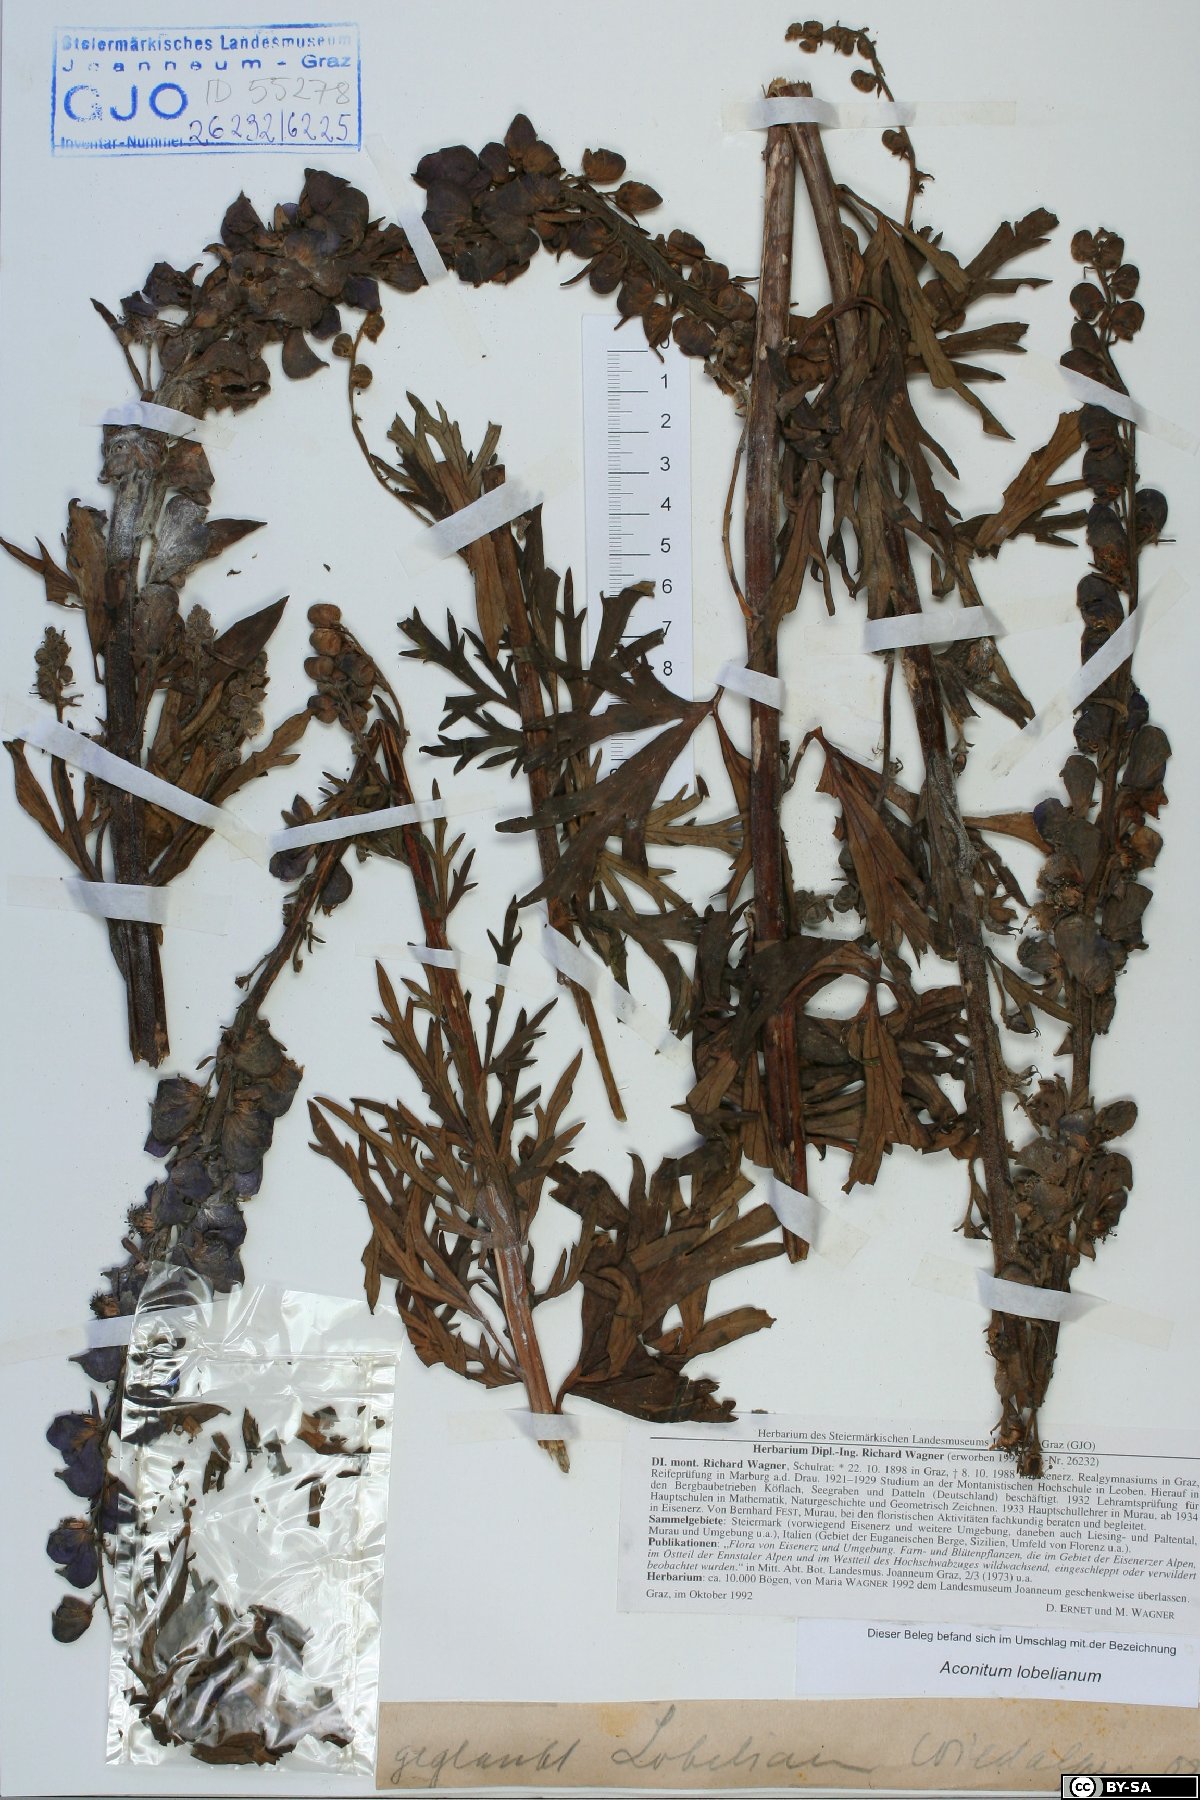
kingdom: Plantae
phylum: Tracheophyta
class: Magnoliopsida
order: Ranunculales
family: Ranunculaceae
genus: Aconitum
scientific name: Aconitum napellus
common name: Garden monkshood
